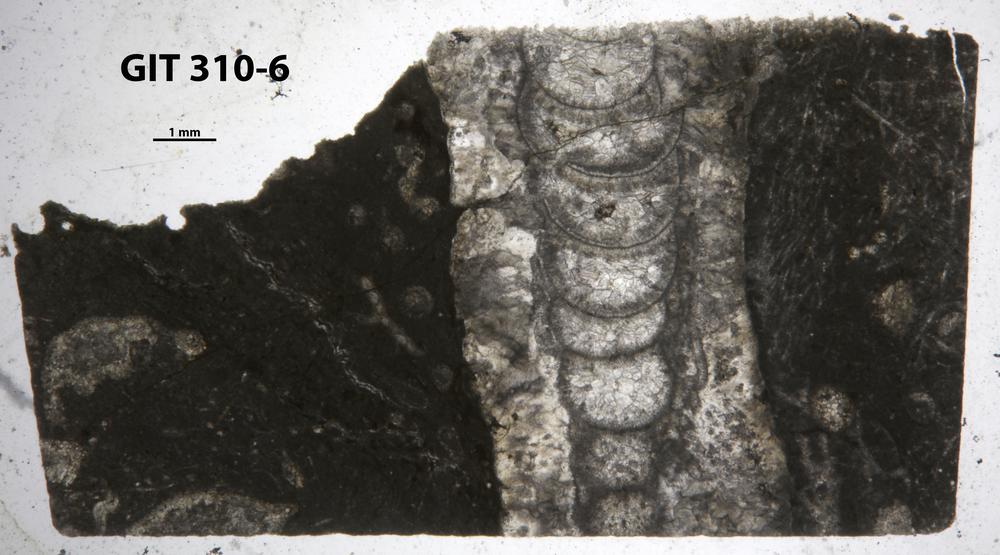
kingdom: Animalia
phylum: Porifera
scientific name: Porifera
